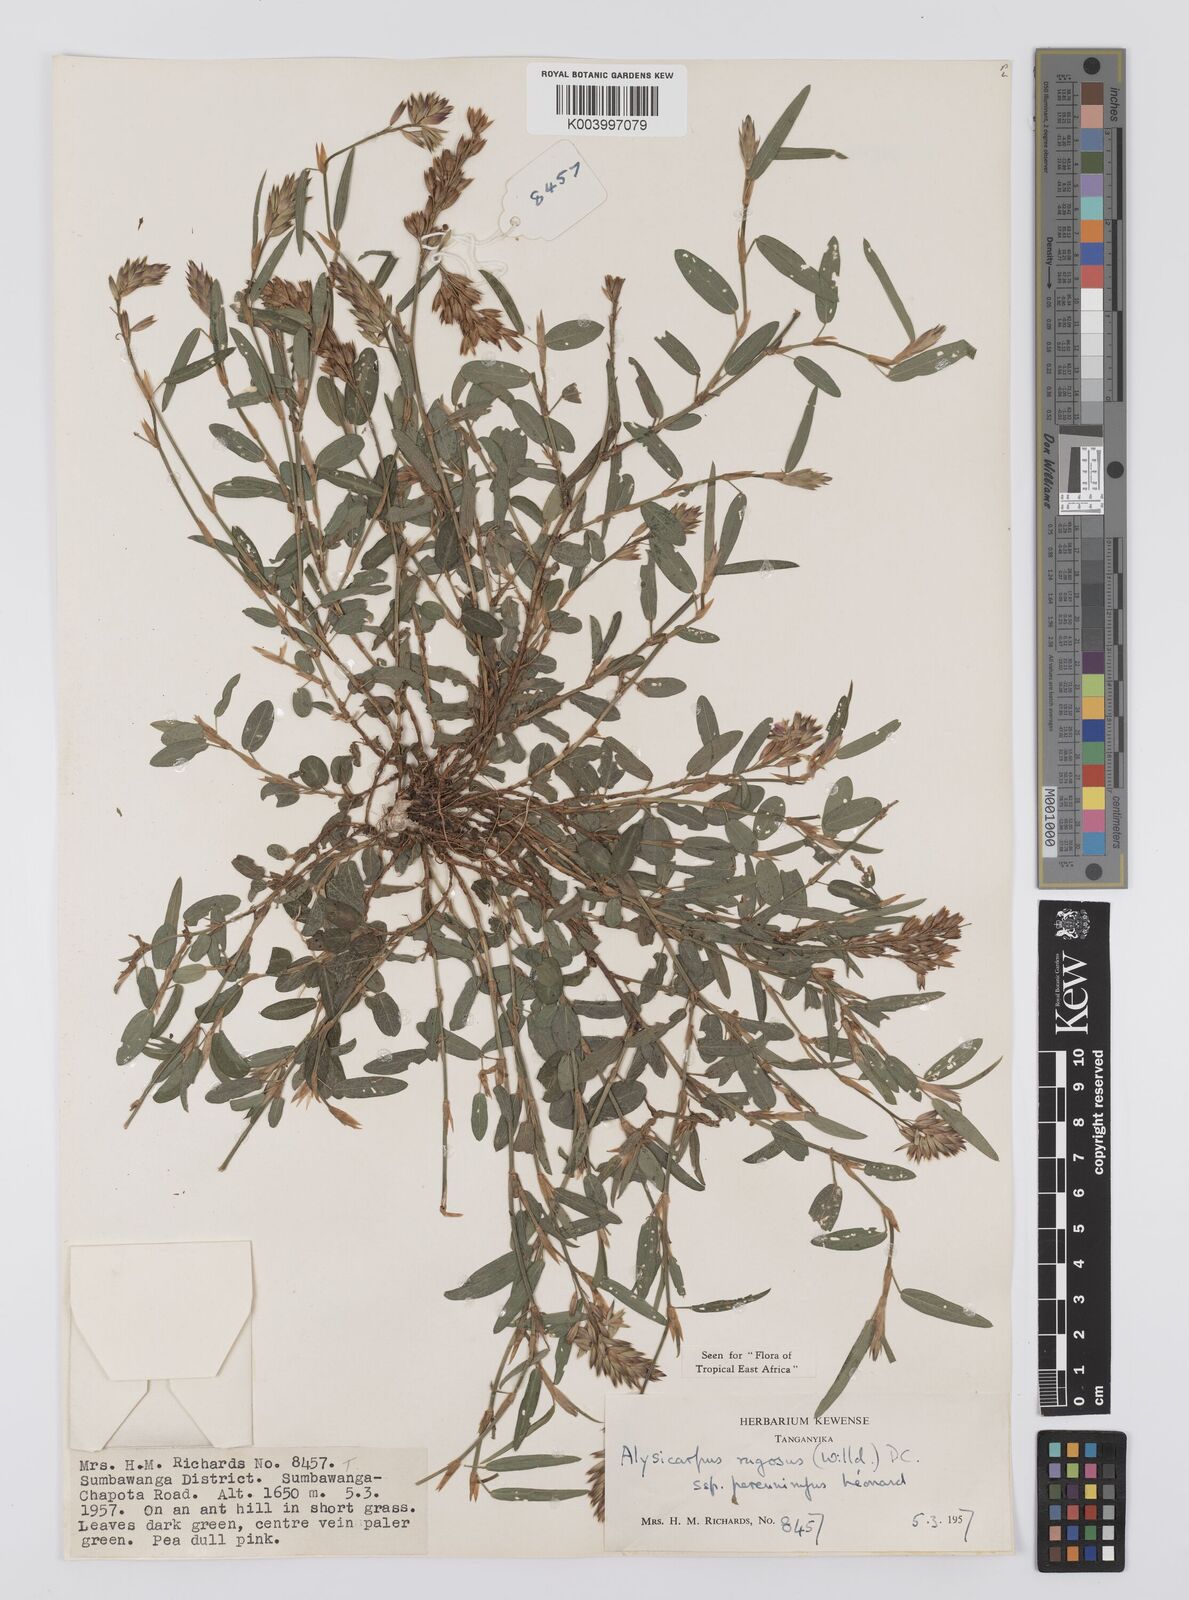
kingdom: Plantae
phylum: Tracheophyta
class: Magnoliopsida
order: Fabales
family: Fabaceae
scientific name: Fabaceae
